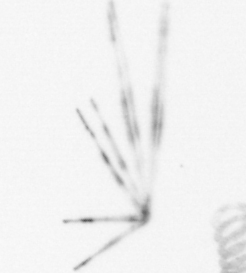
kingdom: Chromista
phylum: Ochrophyta
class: Bacillariophyceae
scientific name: Bacillariophyceae
